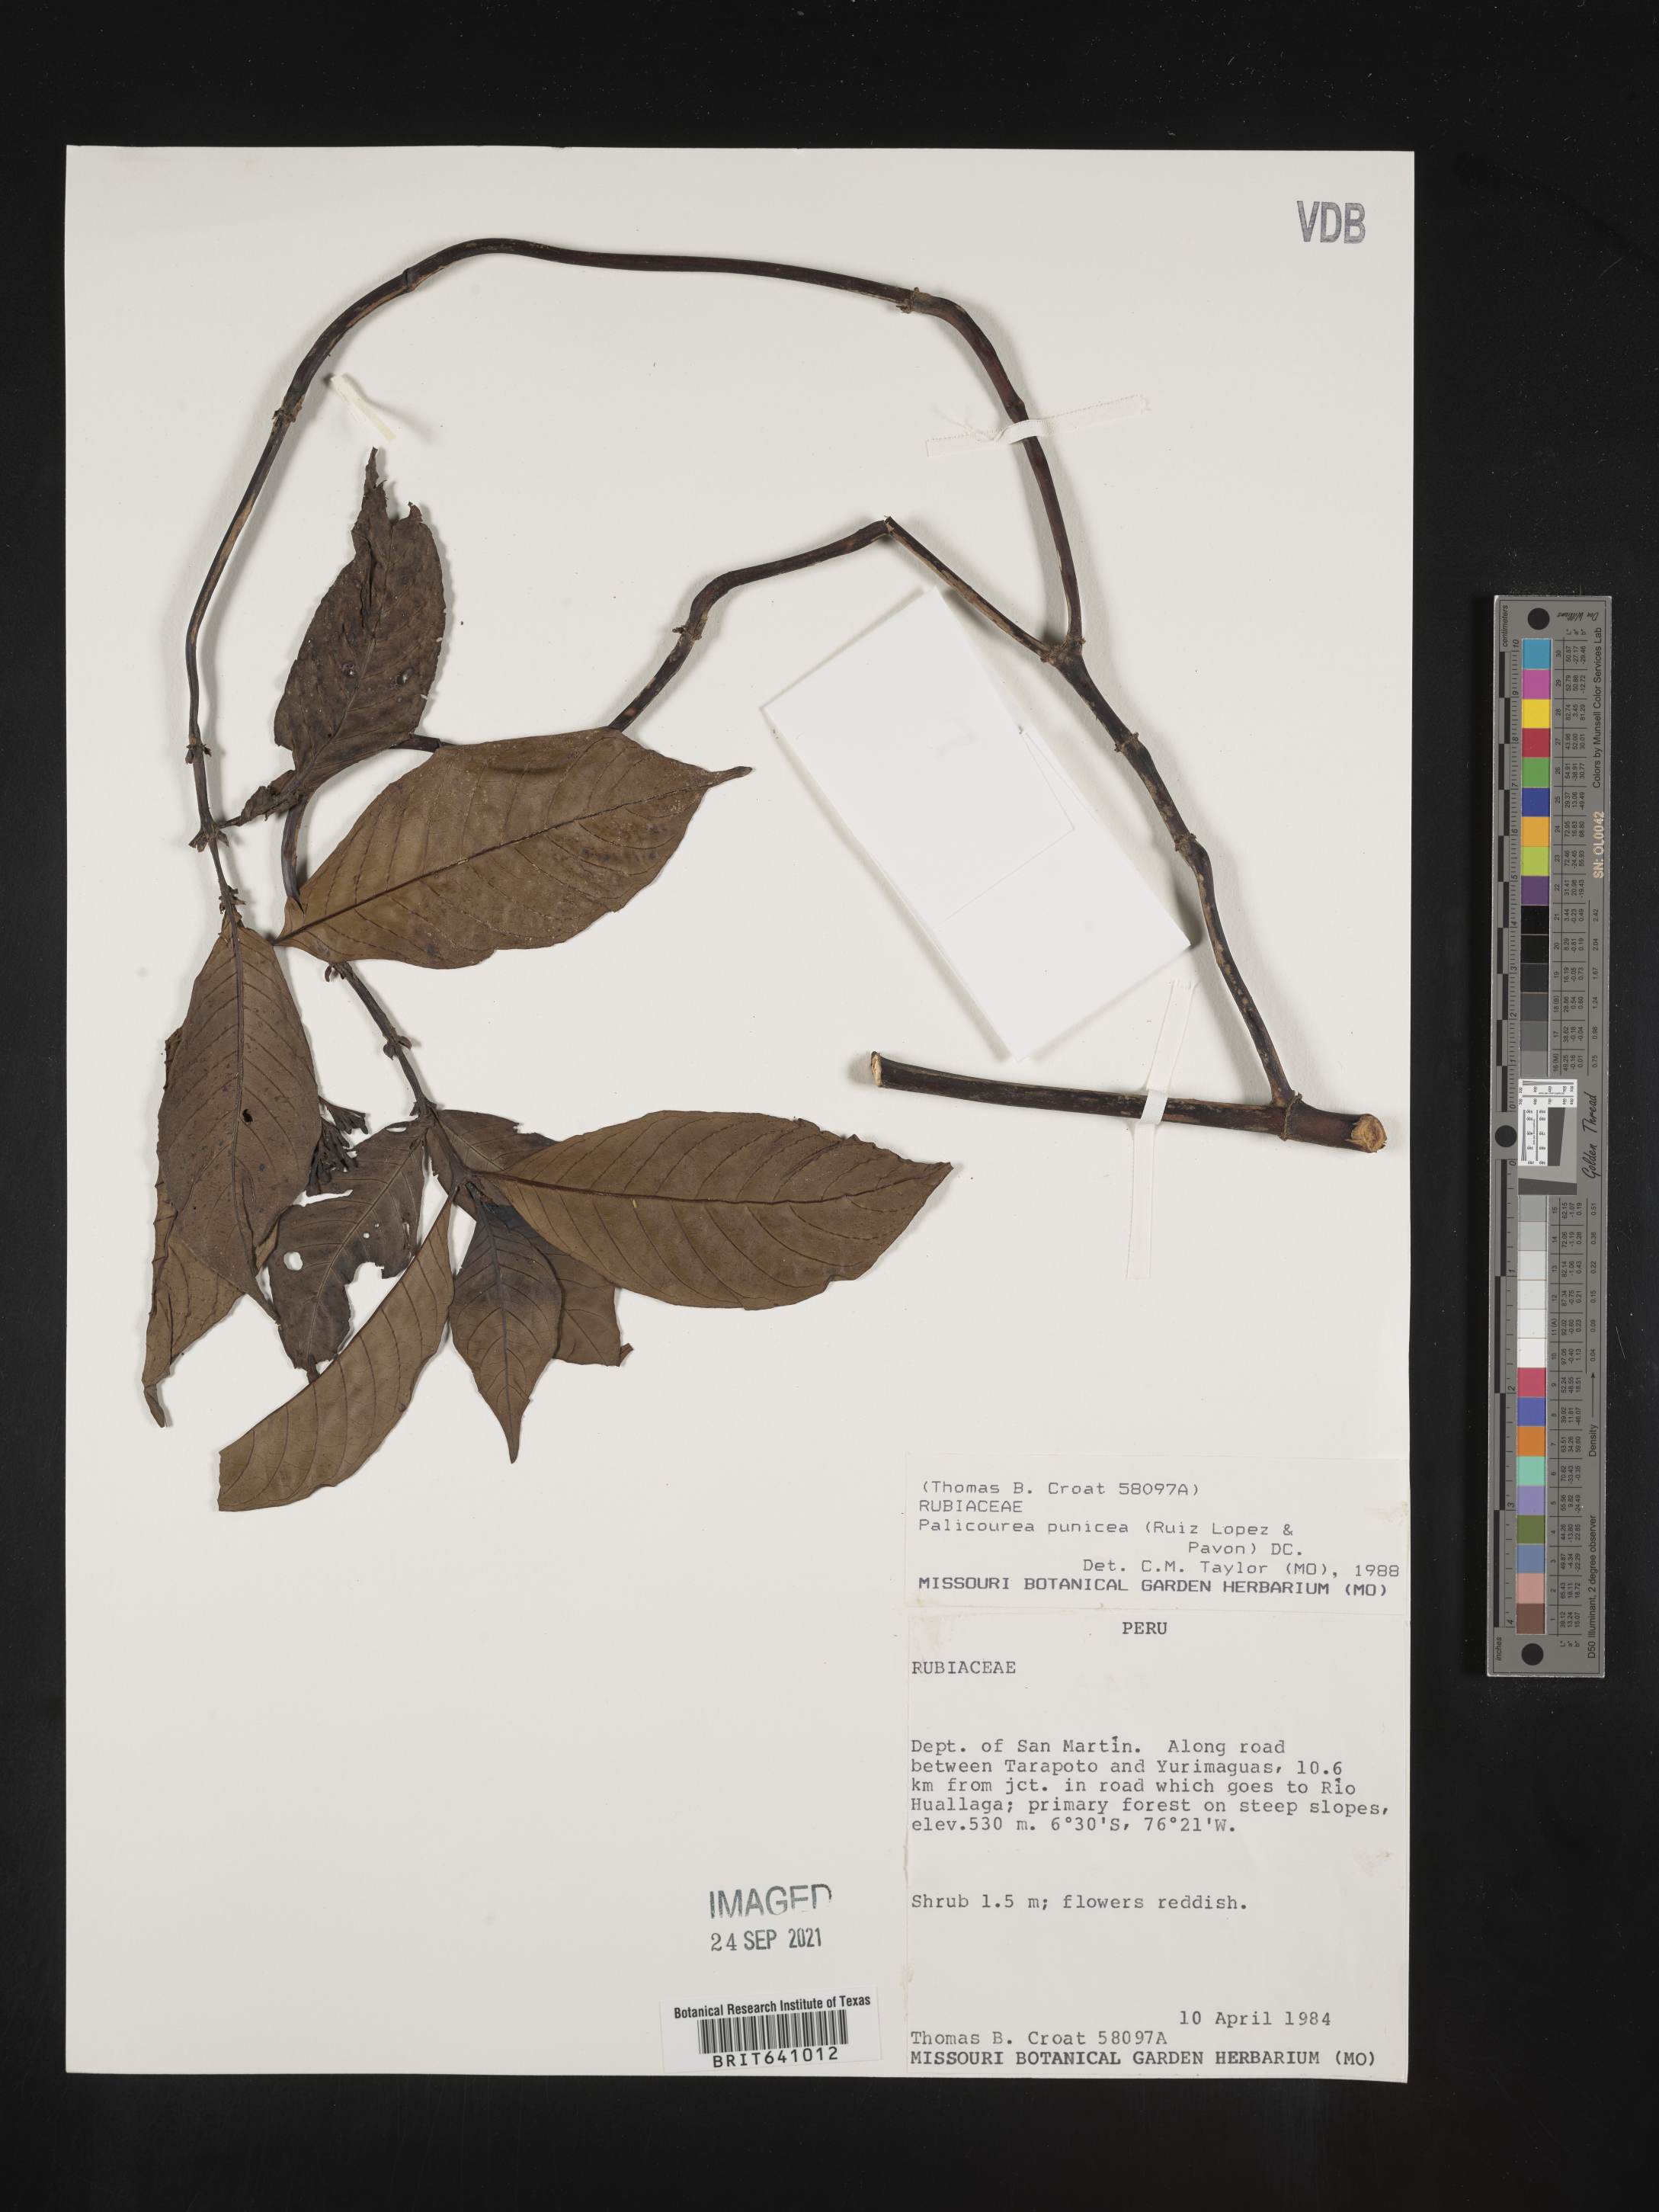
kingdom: Plantae
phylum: Tracheophyta
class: Magnoliopsida
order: Gentianales
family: Rubiaceae
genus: Palicourea
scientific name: Palicourea
